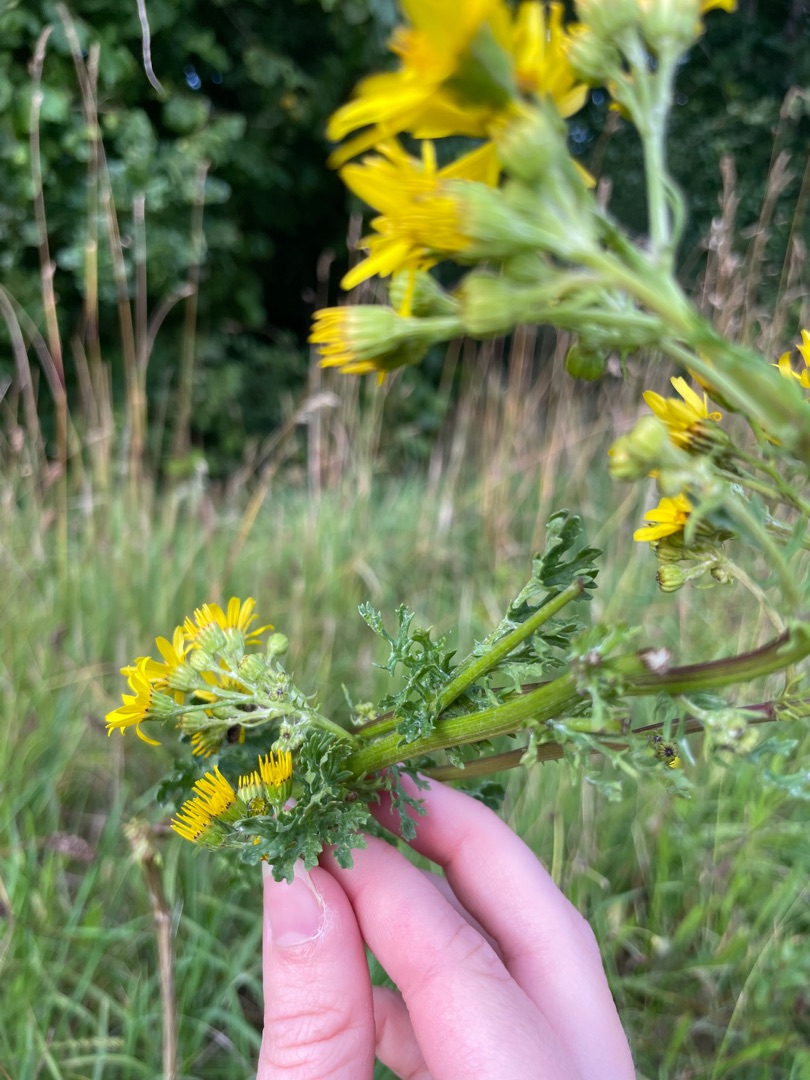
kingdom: Plantae
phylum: Tracheophyta
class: Magnoliopsida
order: Asterales
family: Asteraceae
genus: Jacobaea
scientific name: Jacobaea vulgaris
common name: Eng-brandbæger
